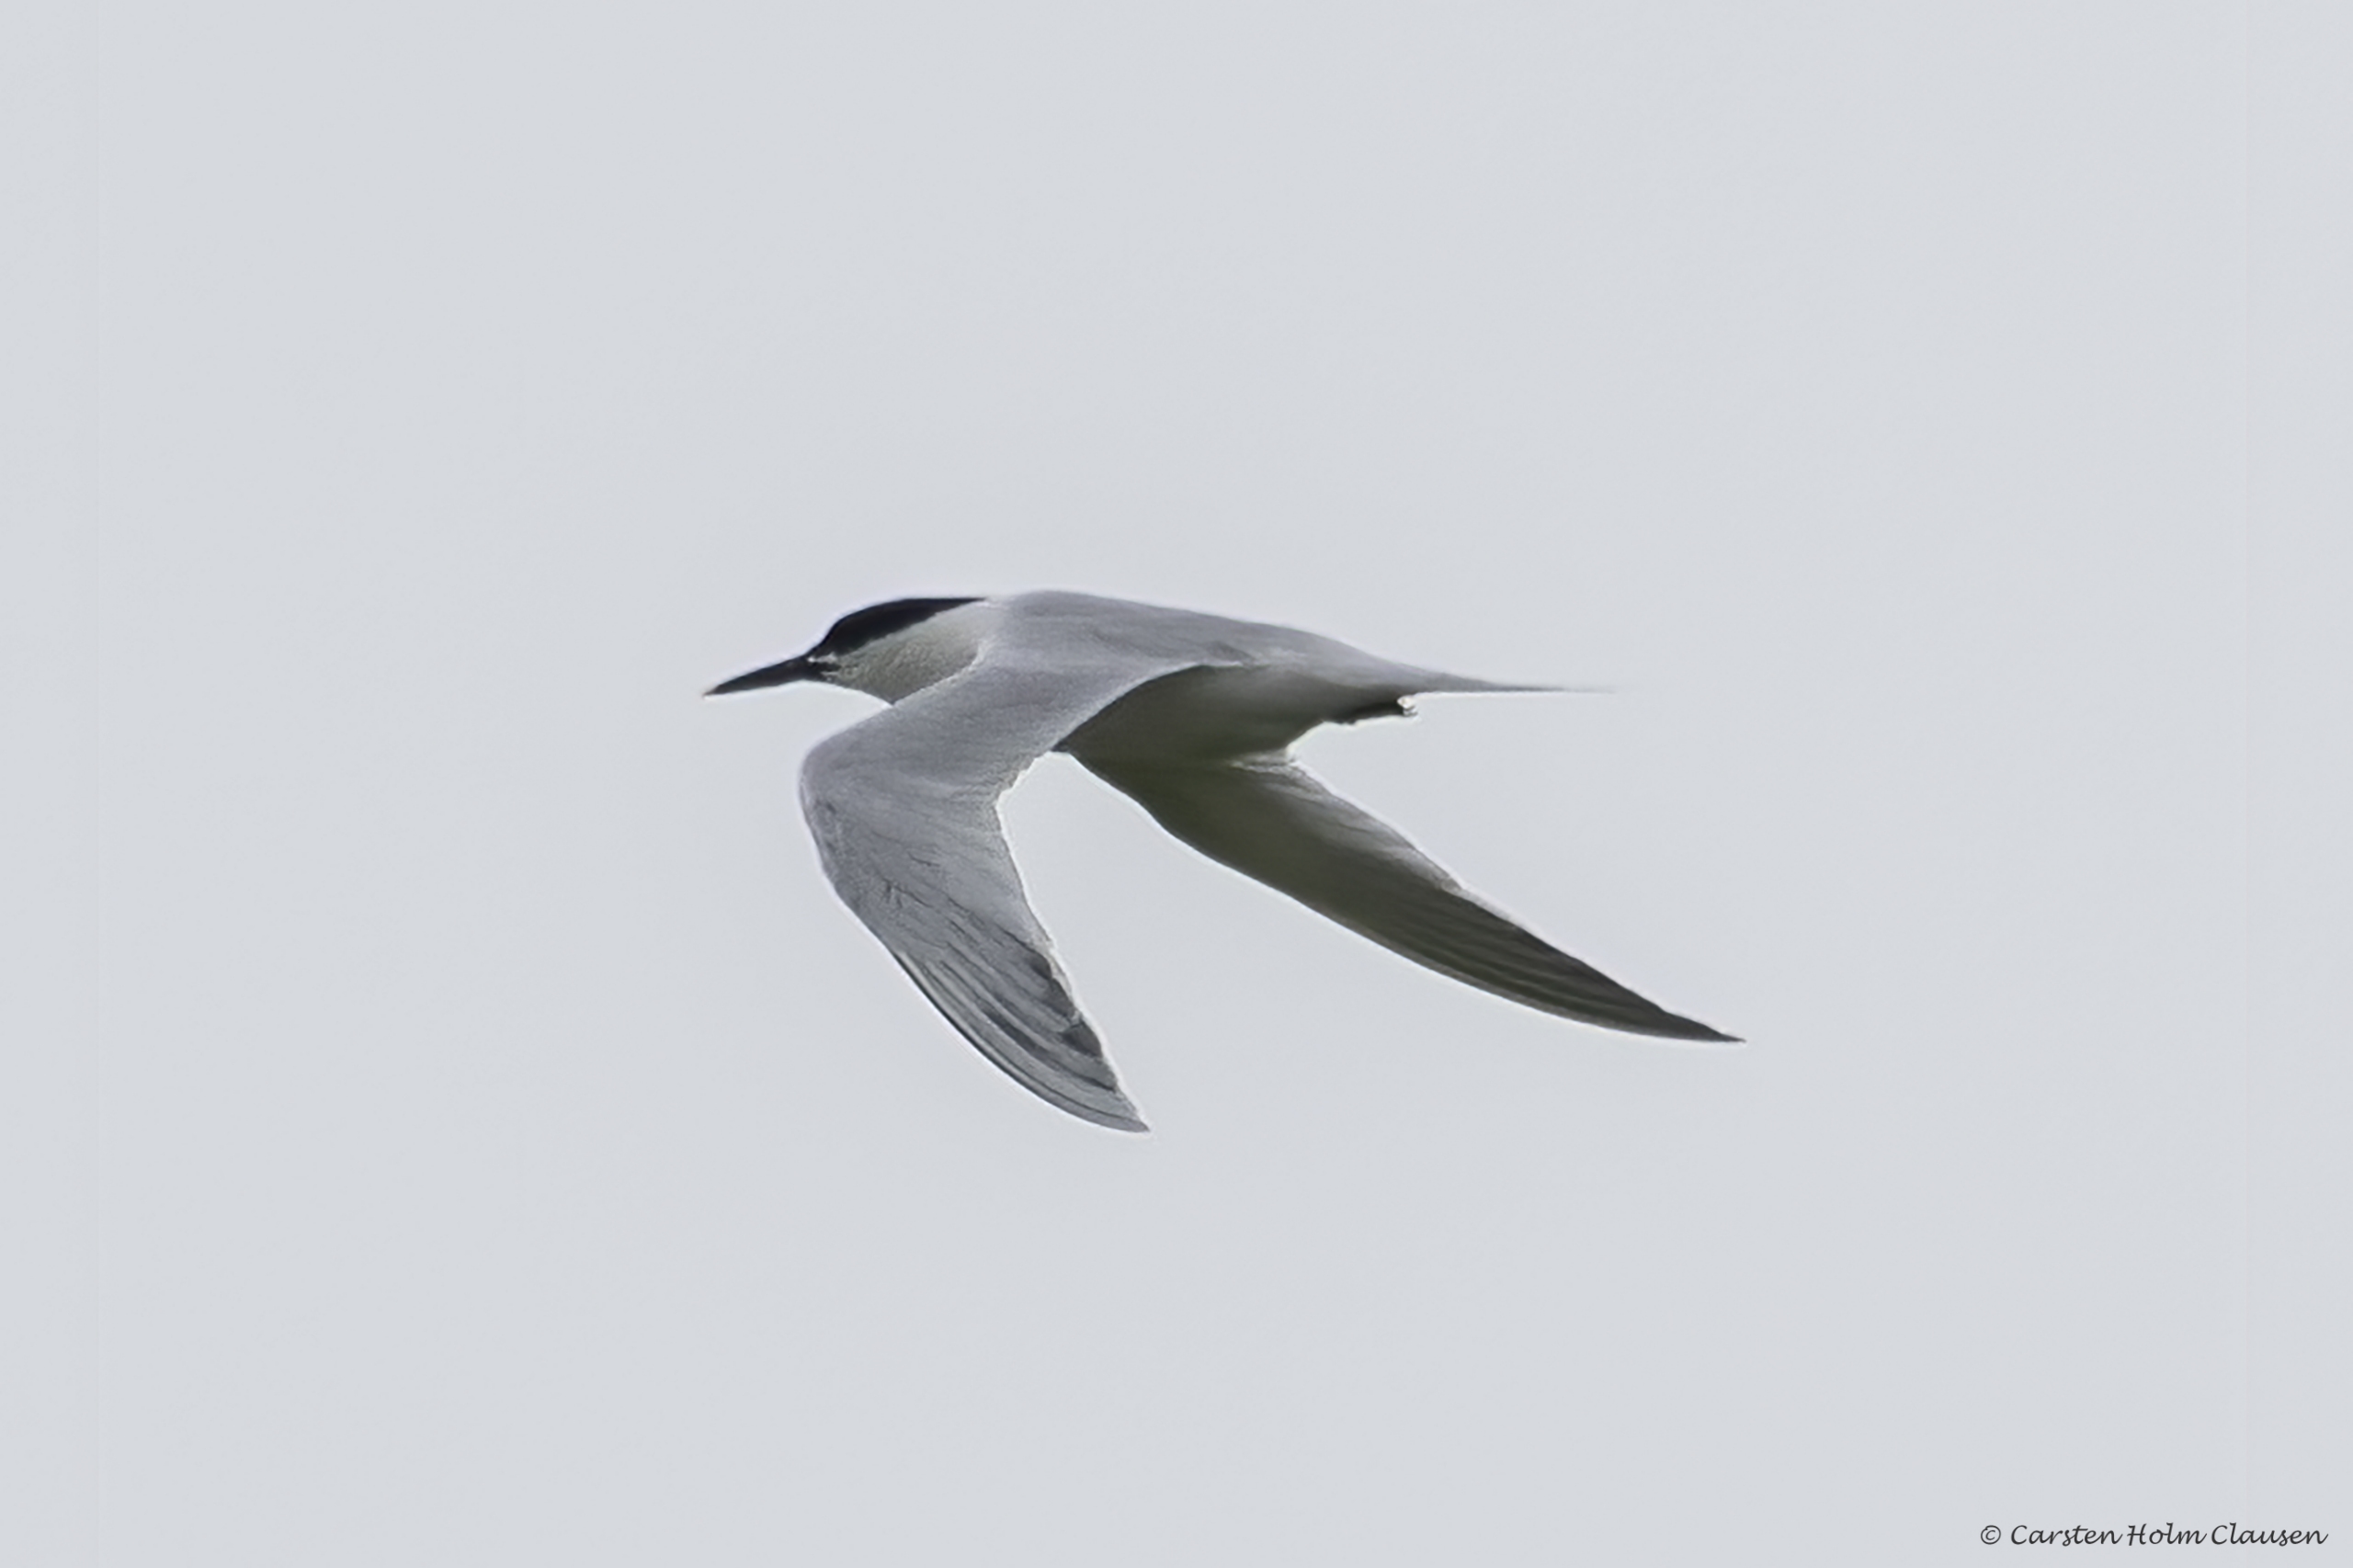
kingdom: Animalia
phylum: Chordata
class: Aves
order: Charadriiformes
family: Laridae
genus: Thalasseus
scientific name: Thalasseus sandvicensis
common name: Splitterne
